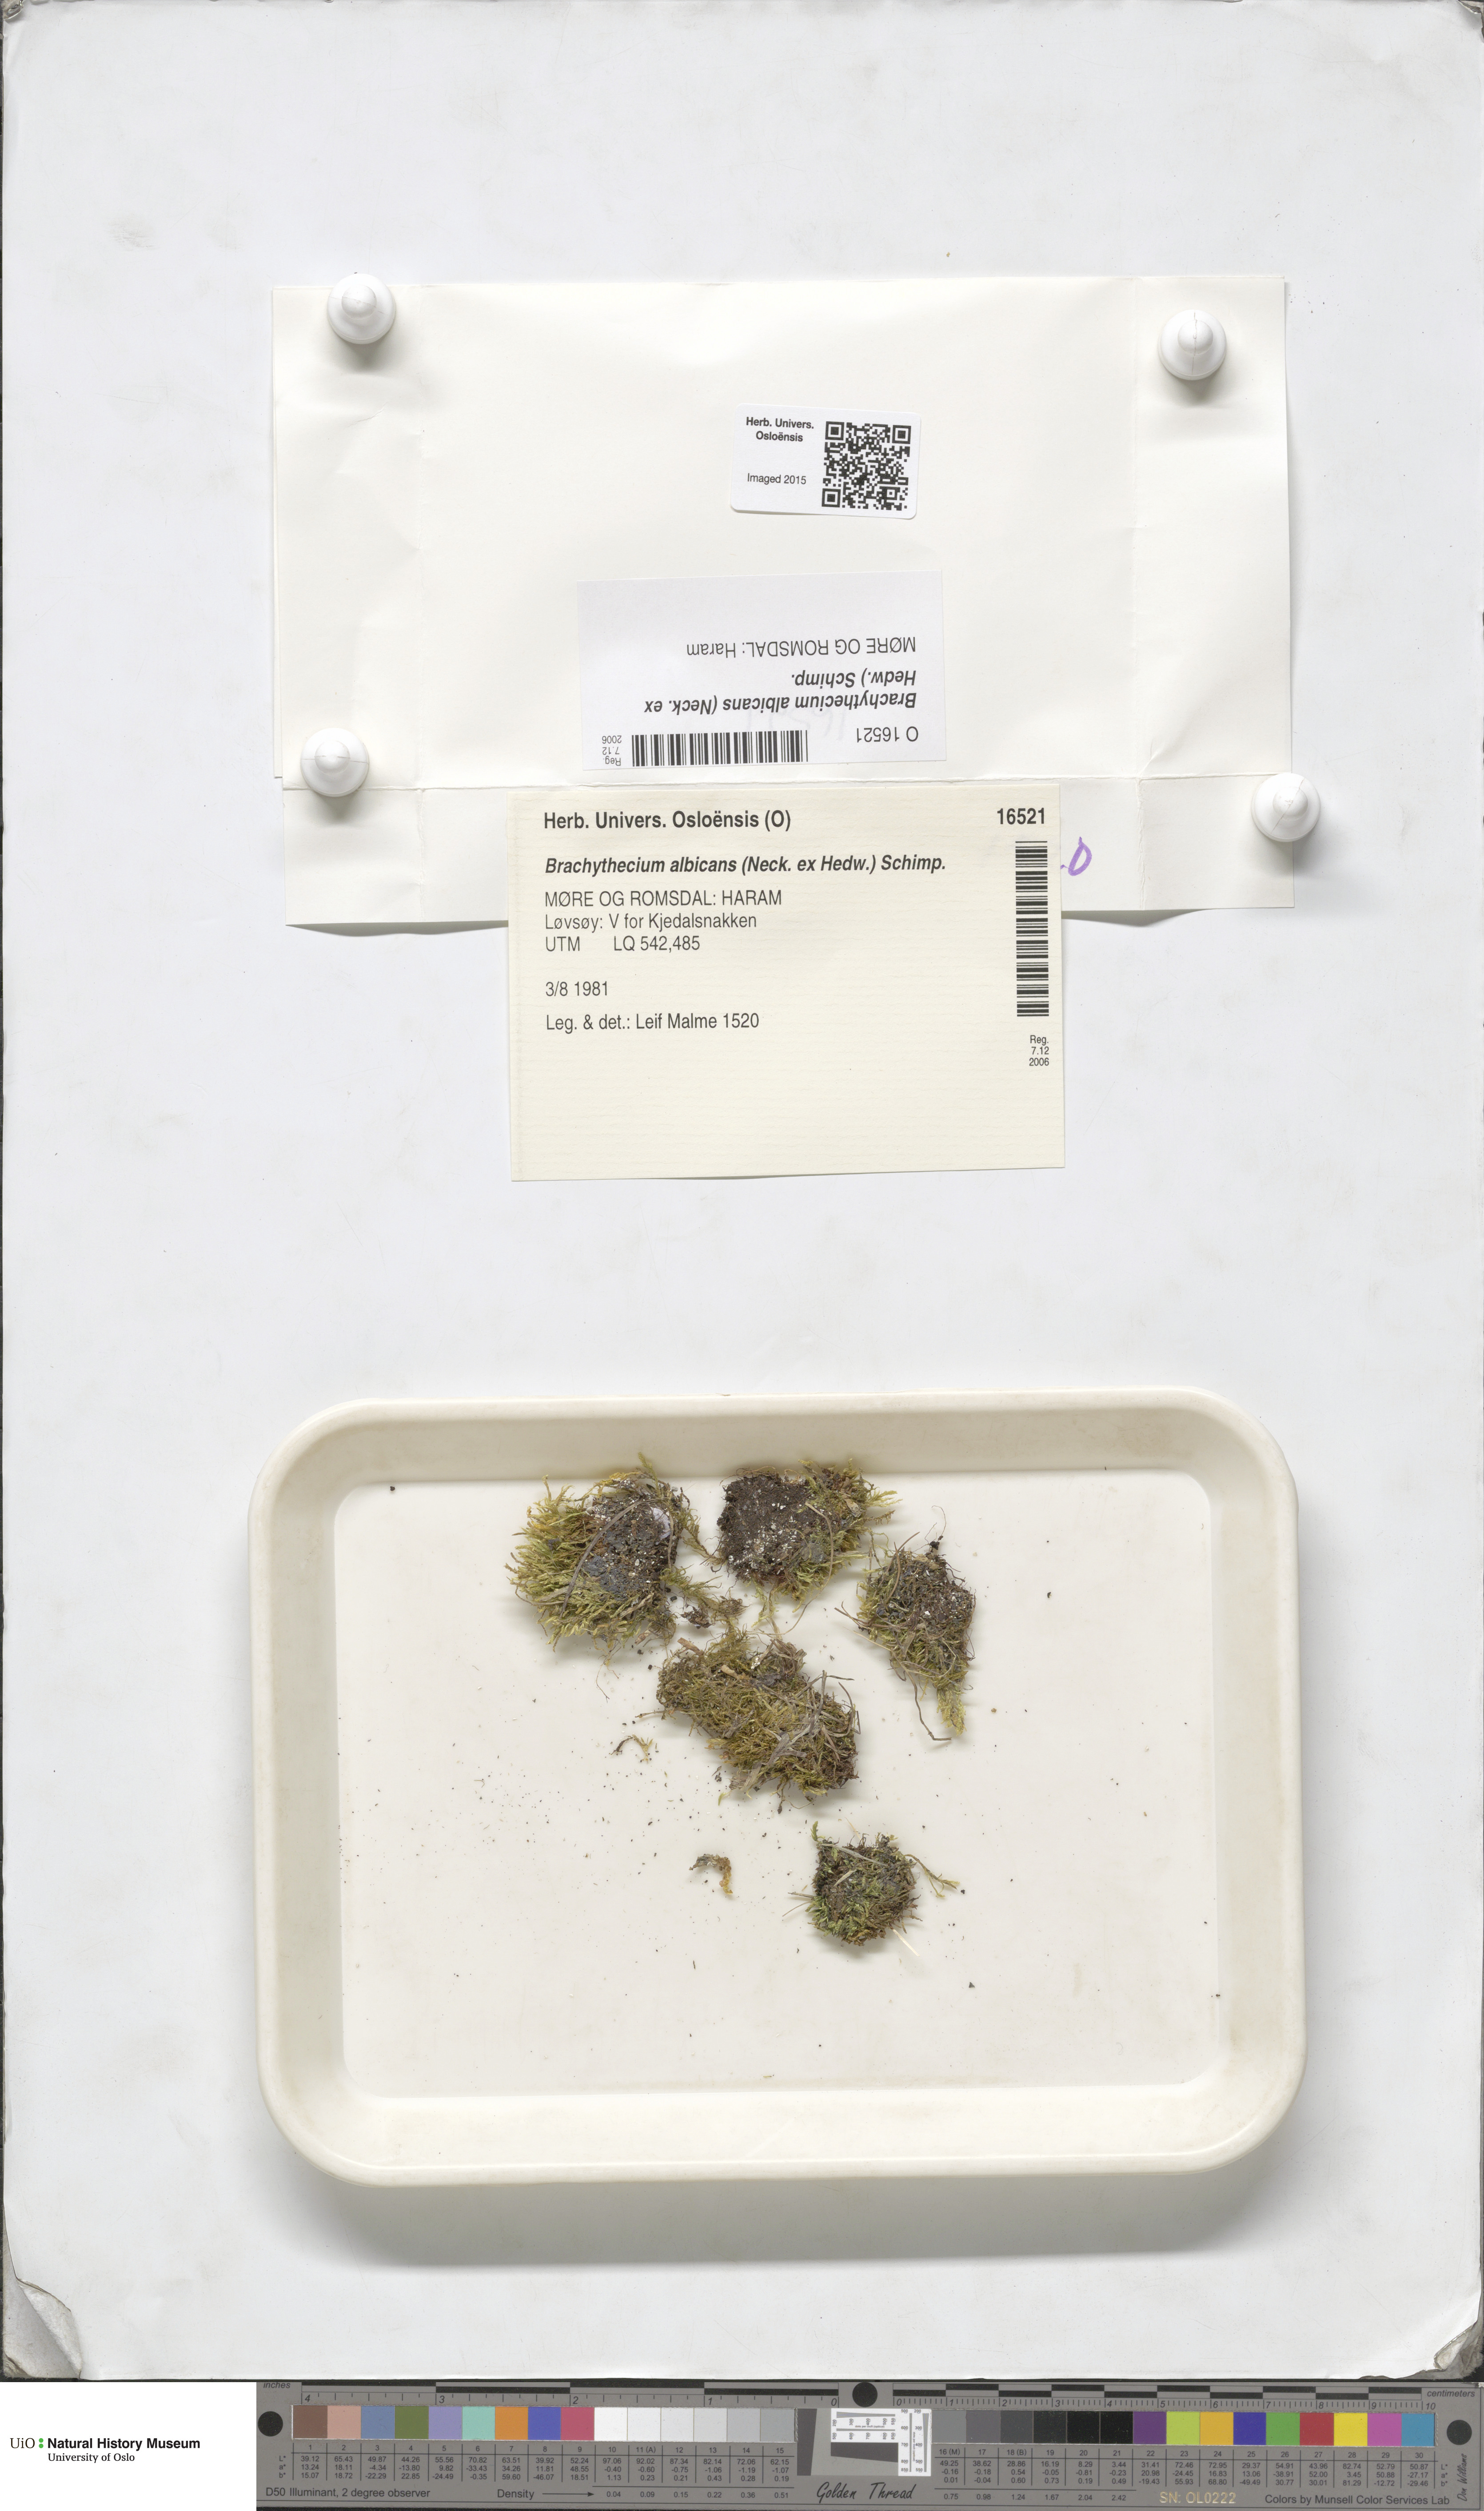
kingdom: Plantae
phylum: Bryophyta
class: Bryopsida
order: Hypnales
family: Brachytheciaceae
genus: Brachythecium
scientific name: Brachythecium albicans
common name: Whitish ragged moss
